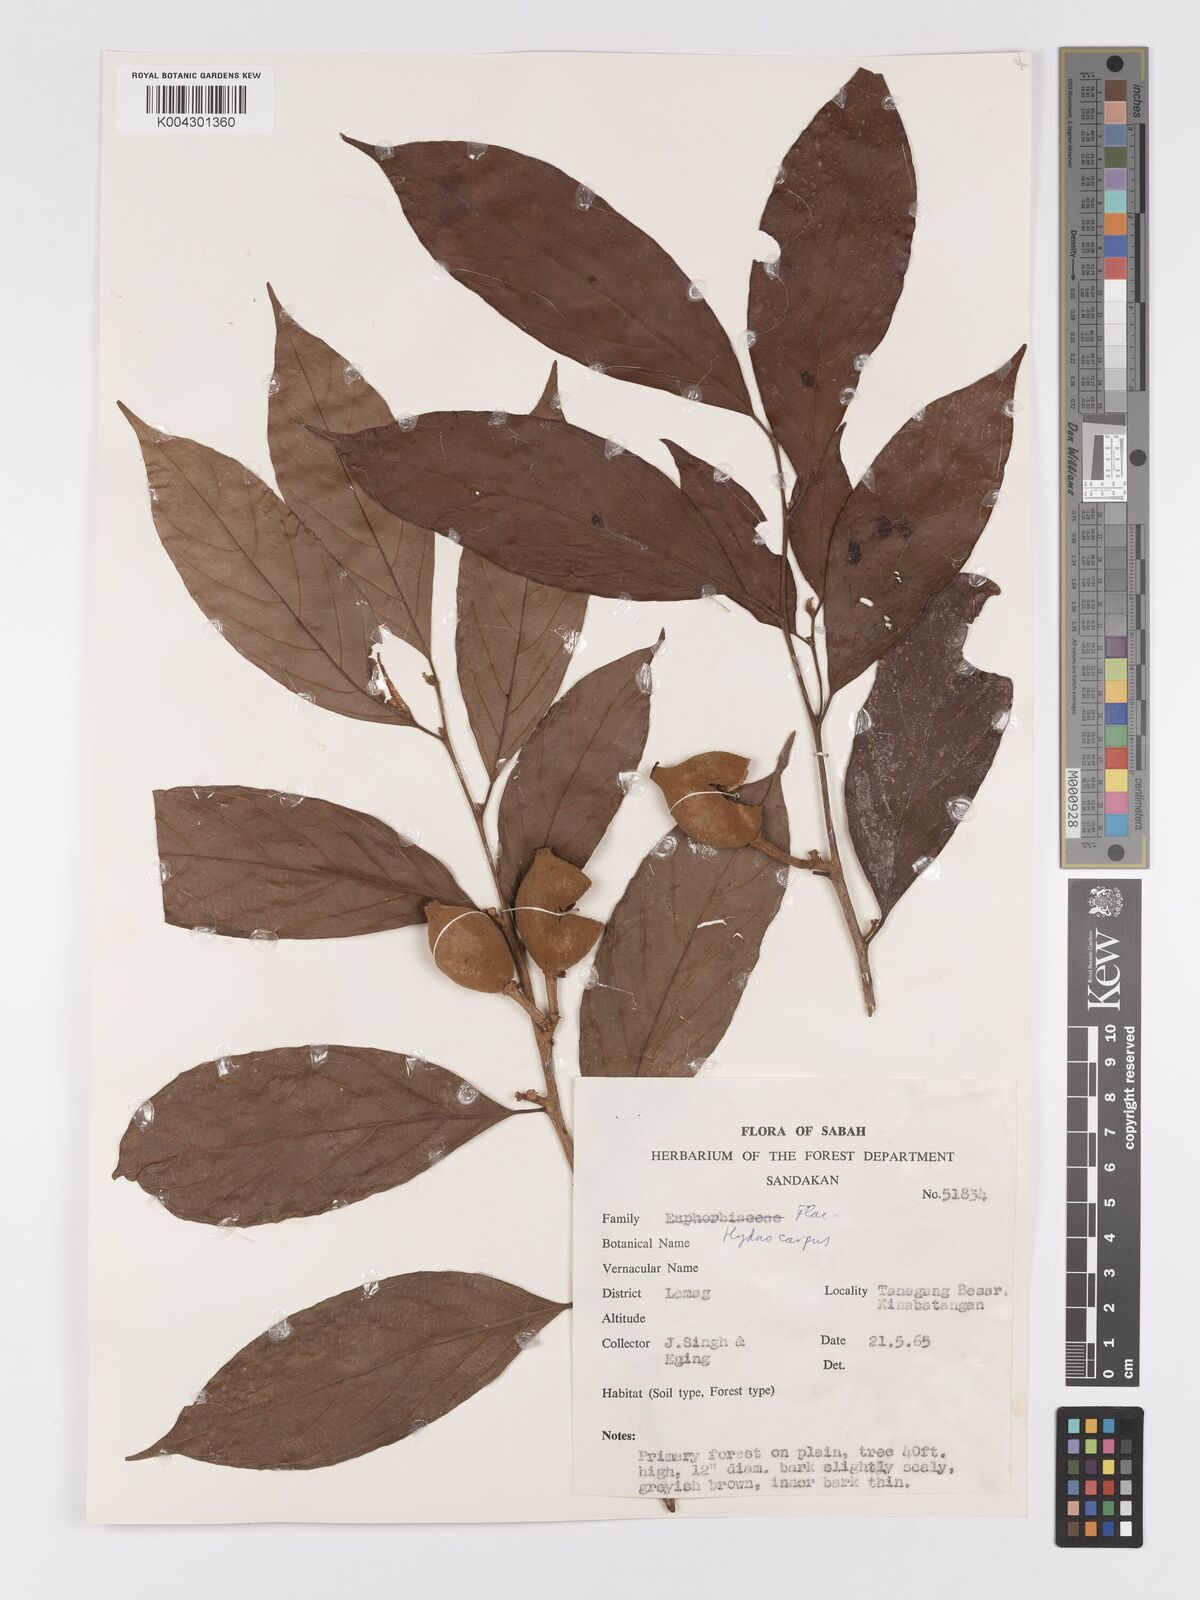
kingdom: Plantae
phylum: Tracheophyta
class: Magnoliopsida
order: Malpighiales
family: Achariaceae
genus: Hydnocarpus
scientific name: Hydnocarpus
